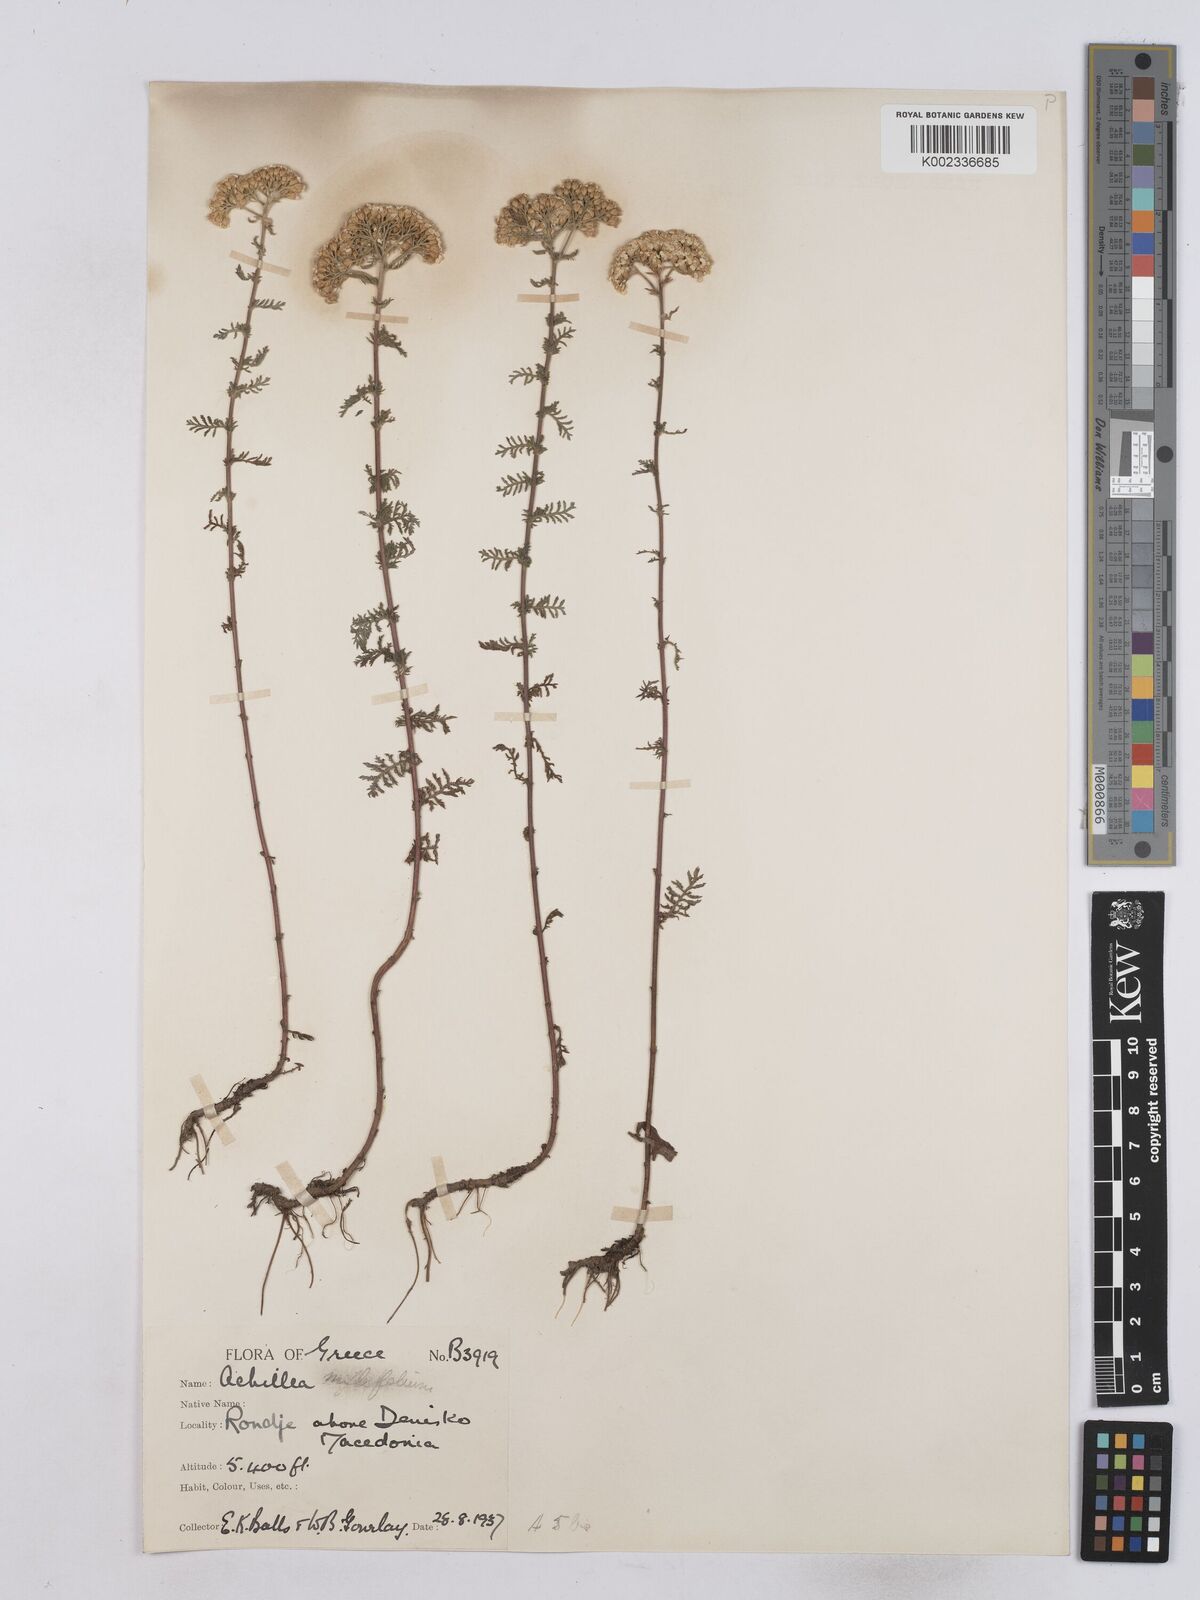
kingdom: Plantae
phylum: Tracheophyta
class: Magnoliopsida
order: Asterales
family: Asteraceae
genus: Achillea
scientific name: Achillea setacea
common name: Bristly yarrow
